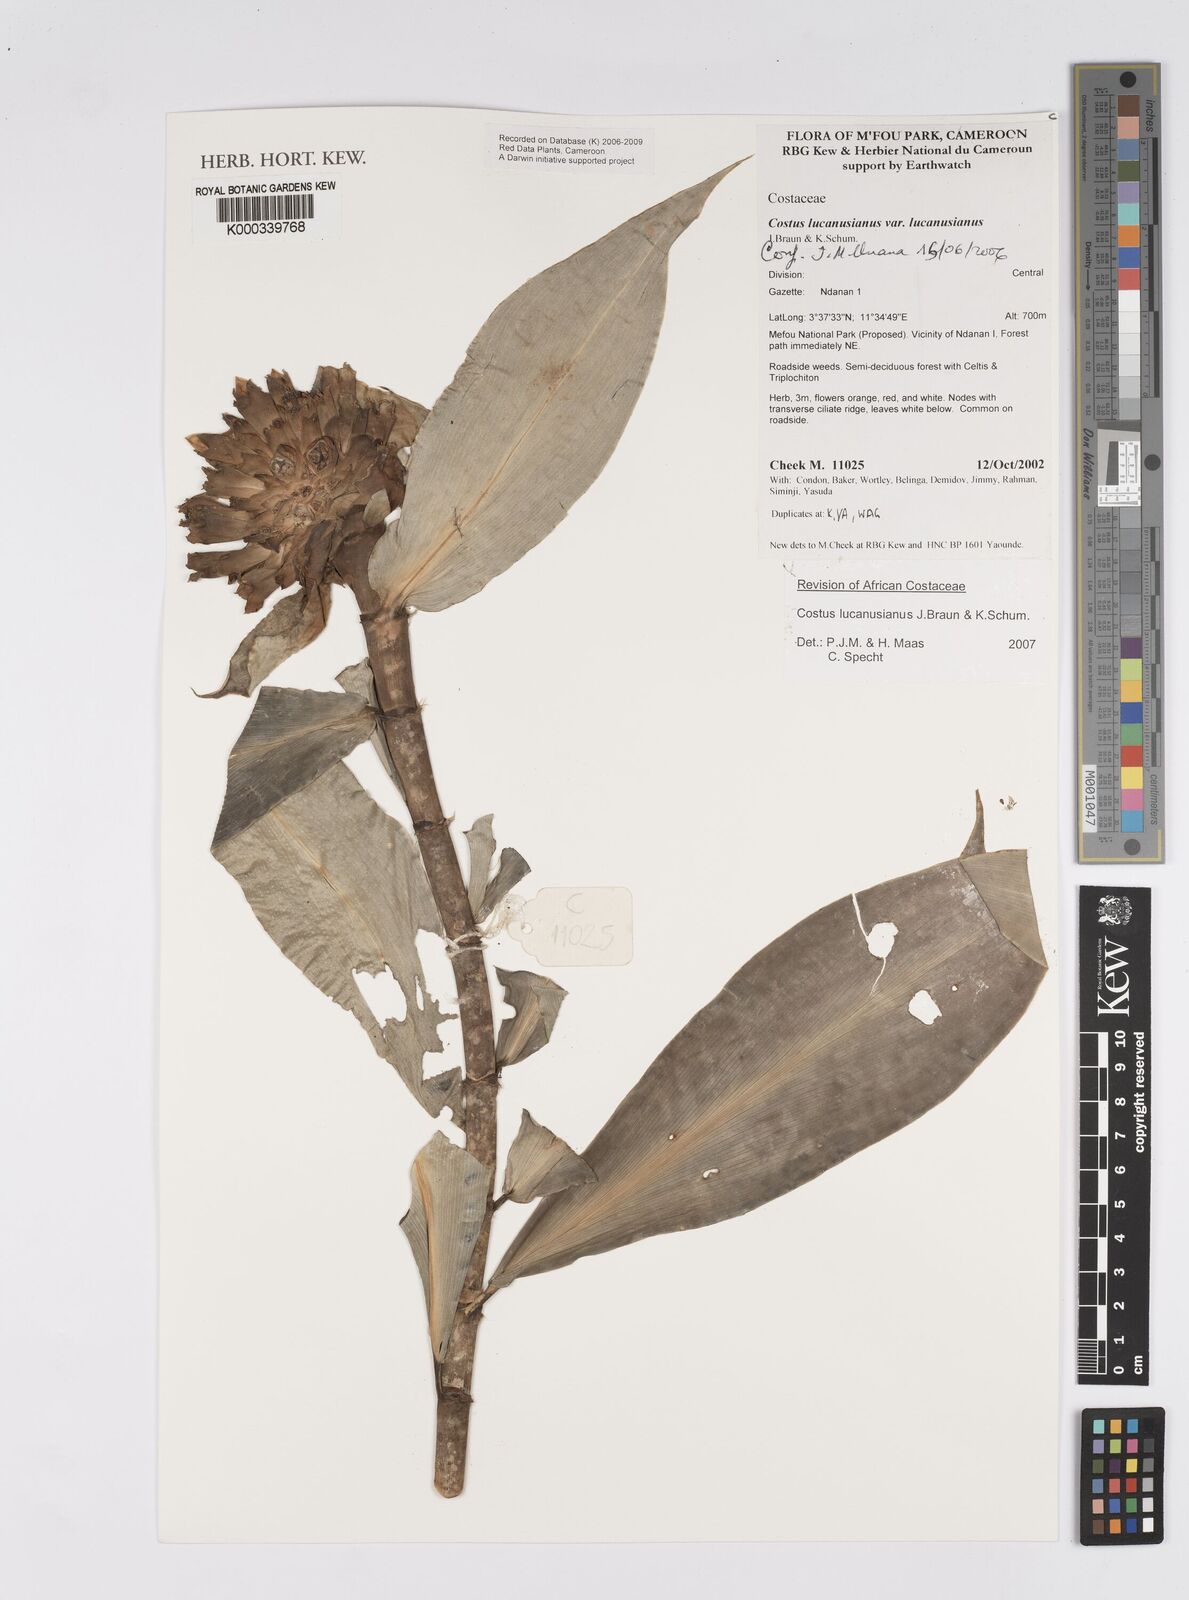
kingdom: Plantae
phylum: Tracheophyta
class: Liliopsida
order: Zingiberales
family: Costaceae
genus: Costus
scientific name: Costus lucanusianus
